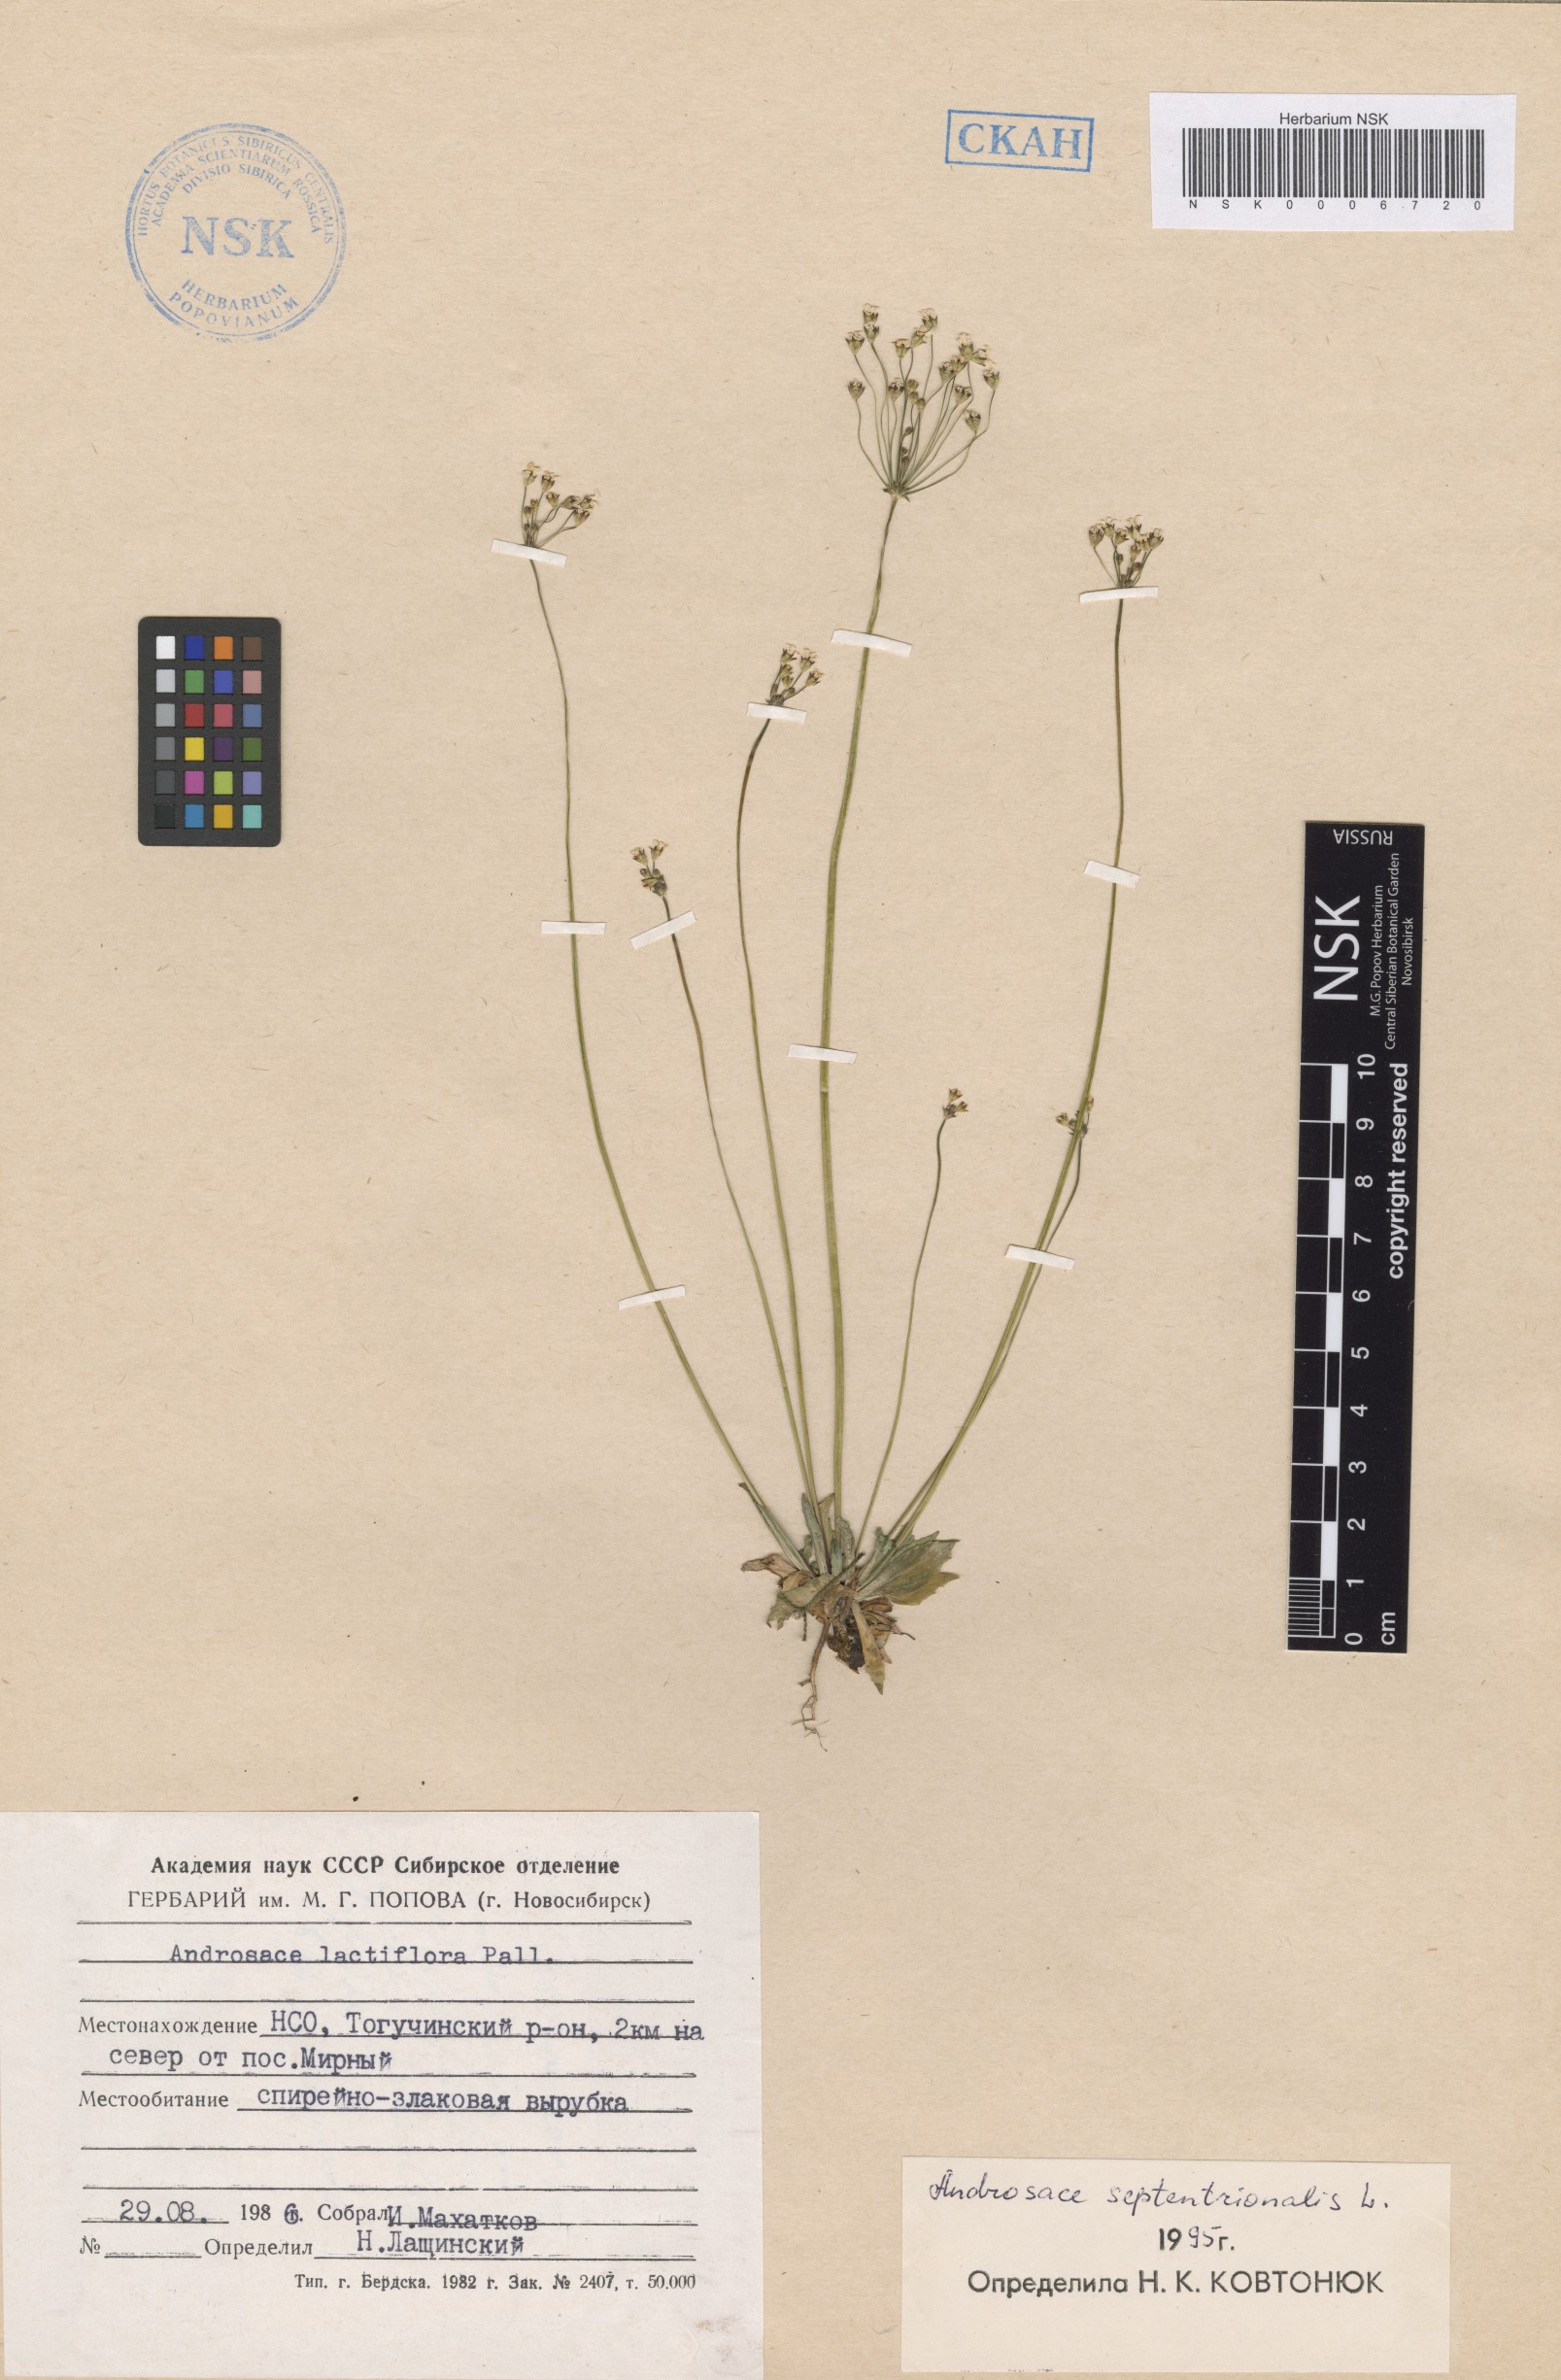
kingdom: Plantae
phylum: Tracheophyta
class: Magnoliopsida
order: Ericales
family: Primulaceae
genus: Androsace
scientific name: Androsace septentrionalis
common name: Hairy northern fairy-candelabra
